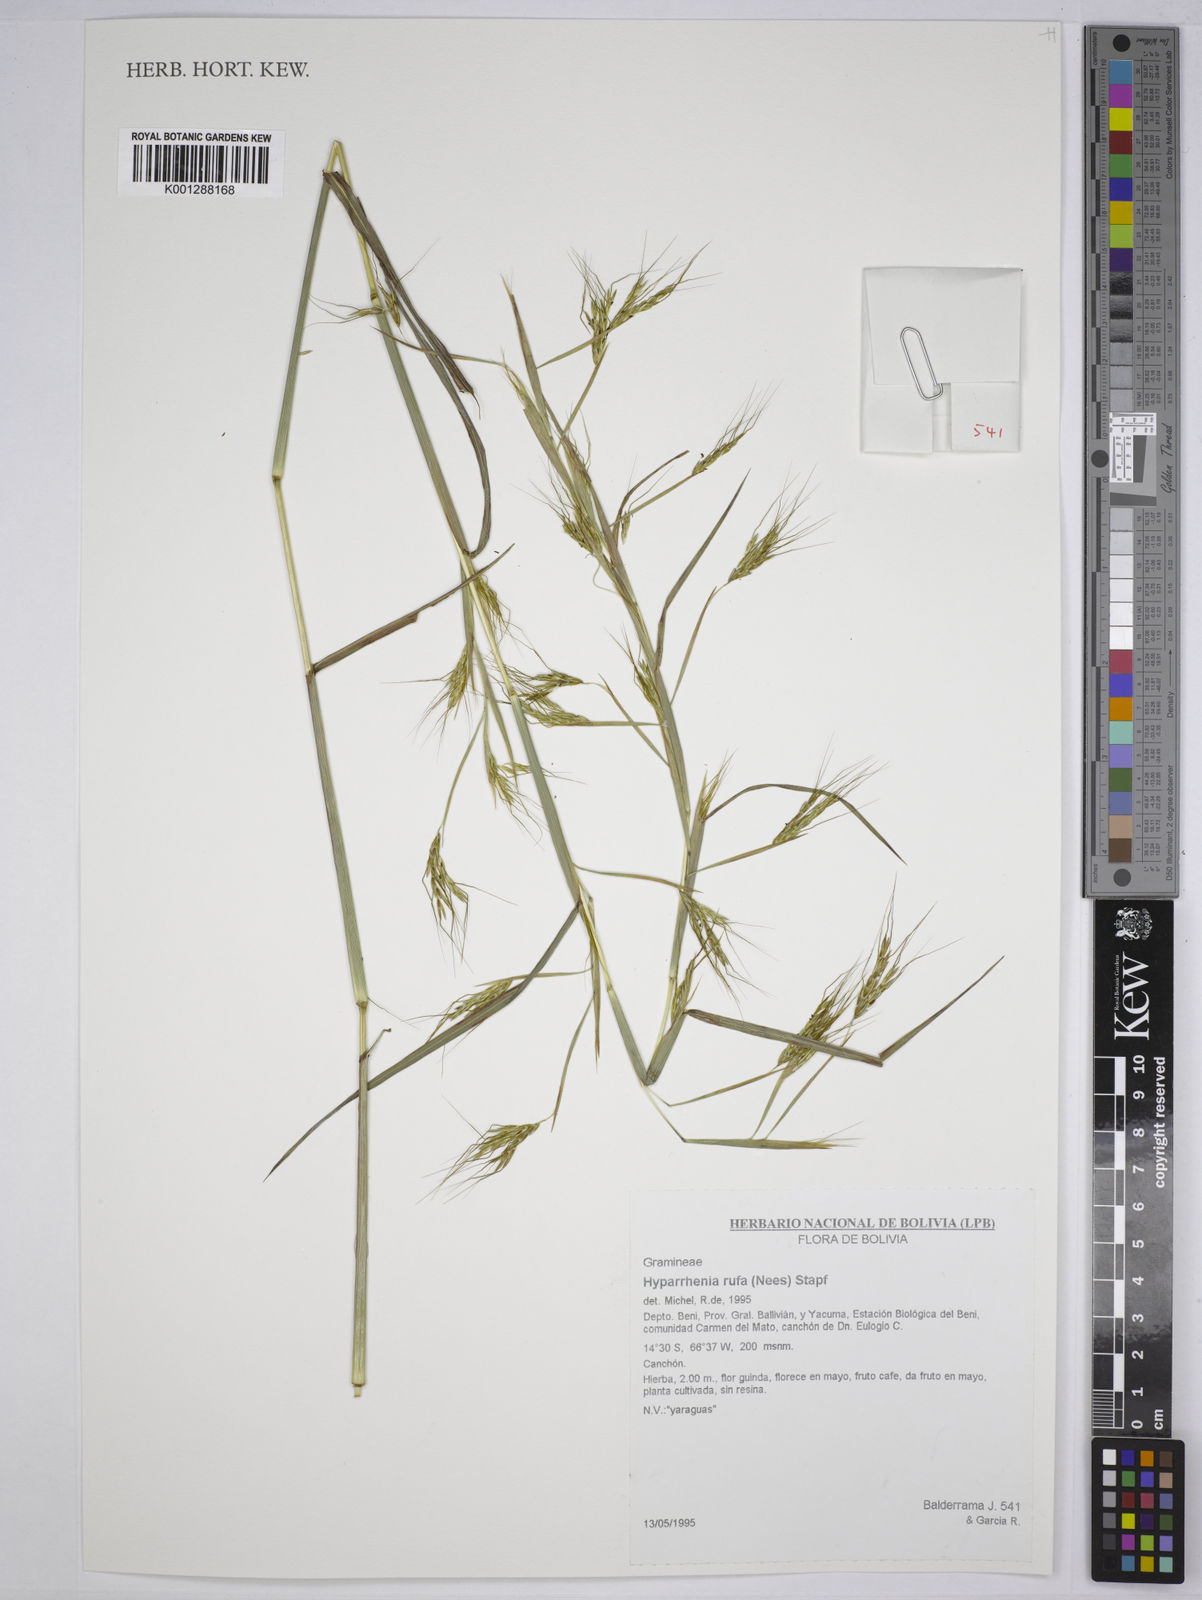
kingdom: Plantae
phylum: Tracheophyta
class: Liliopsida
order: Poales
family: Poaceae
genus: Hyparrhenia
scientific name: Hyparrhenia rufa
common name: Jaraguagrass
